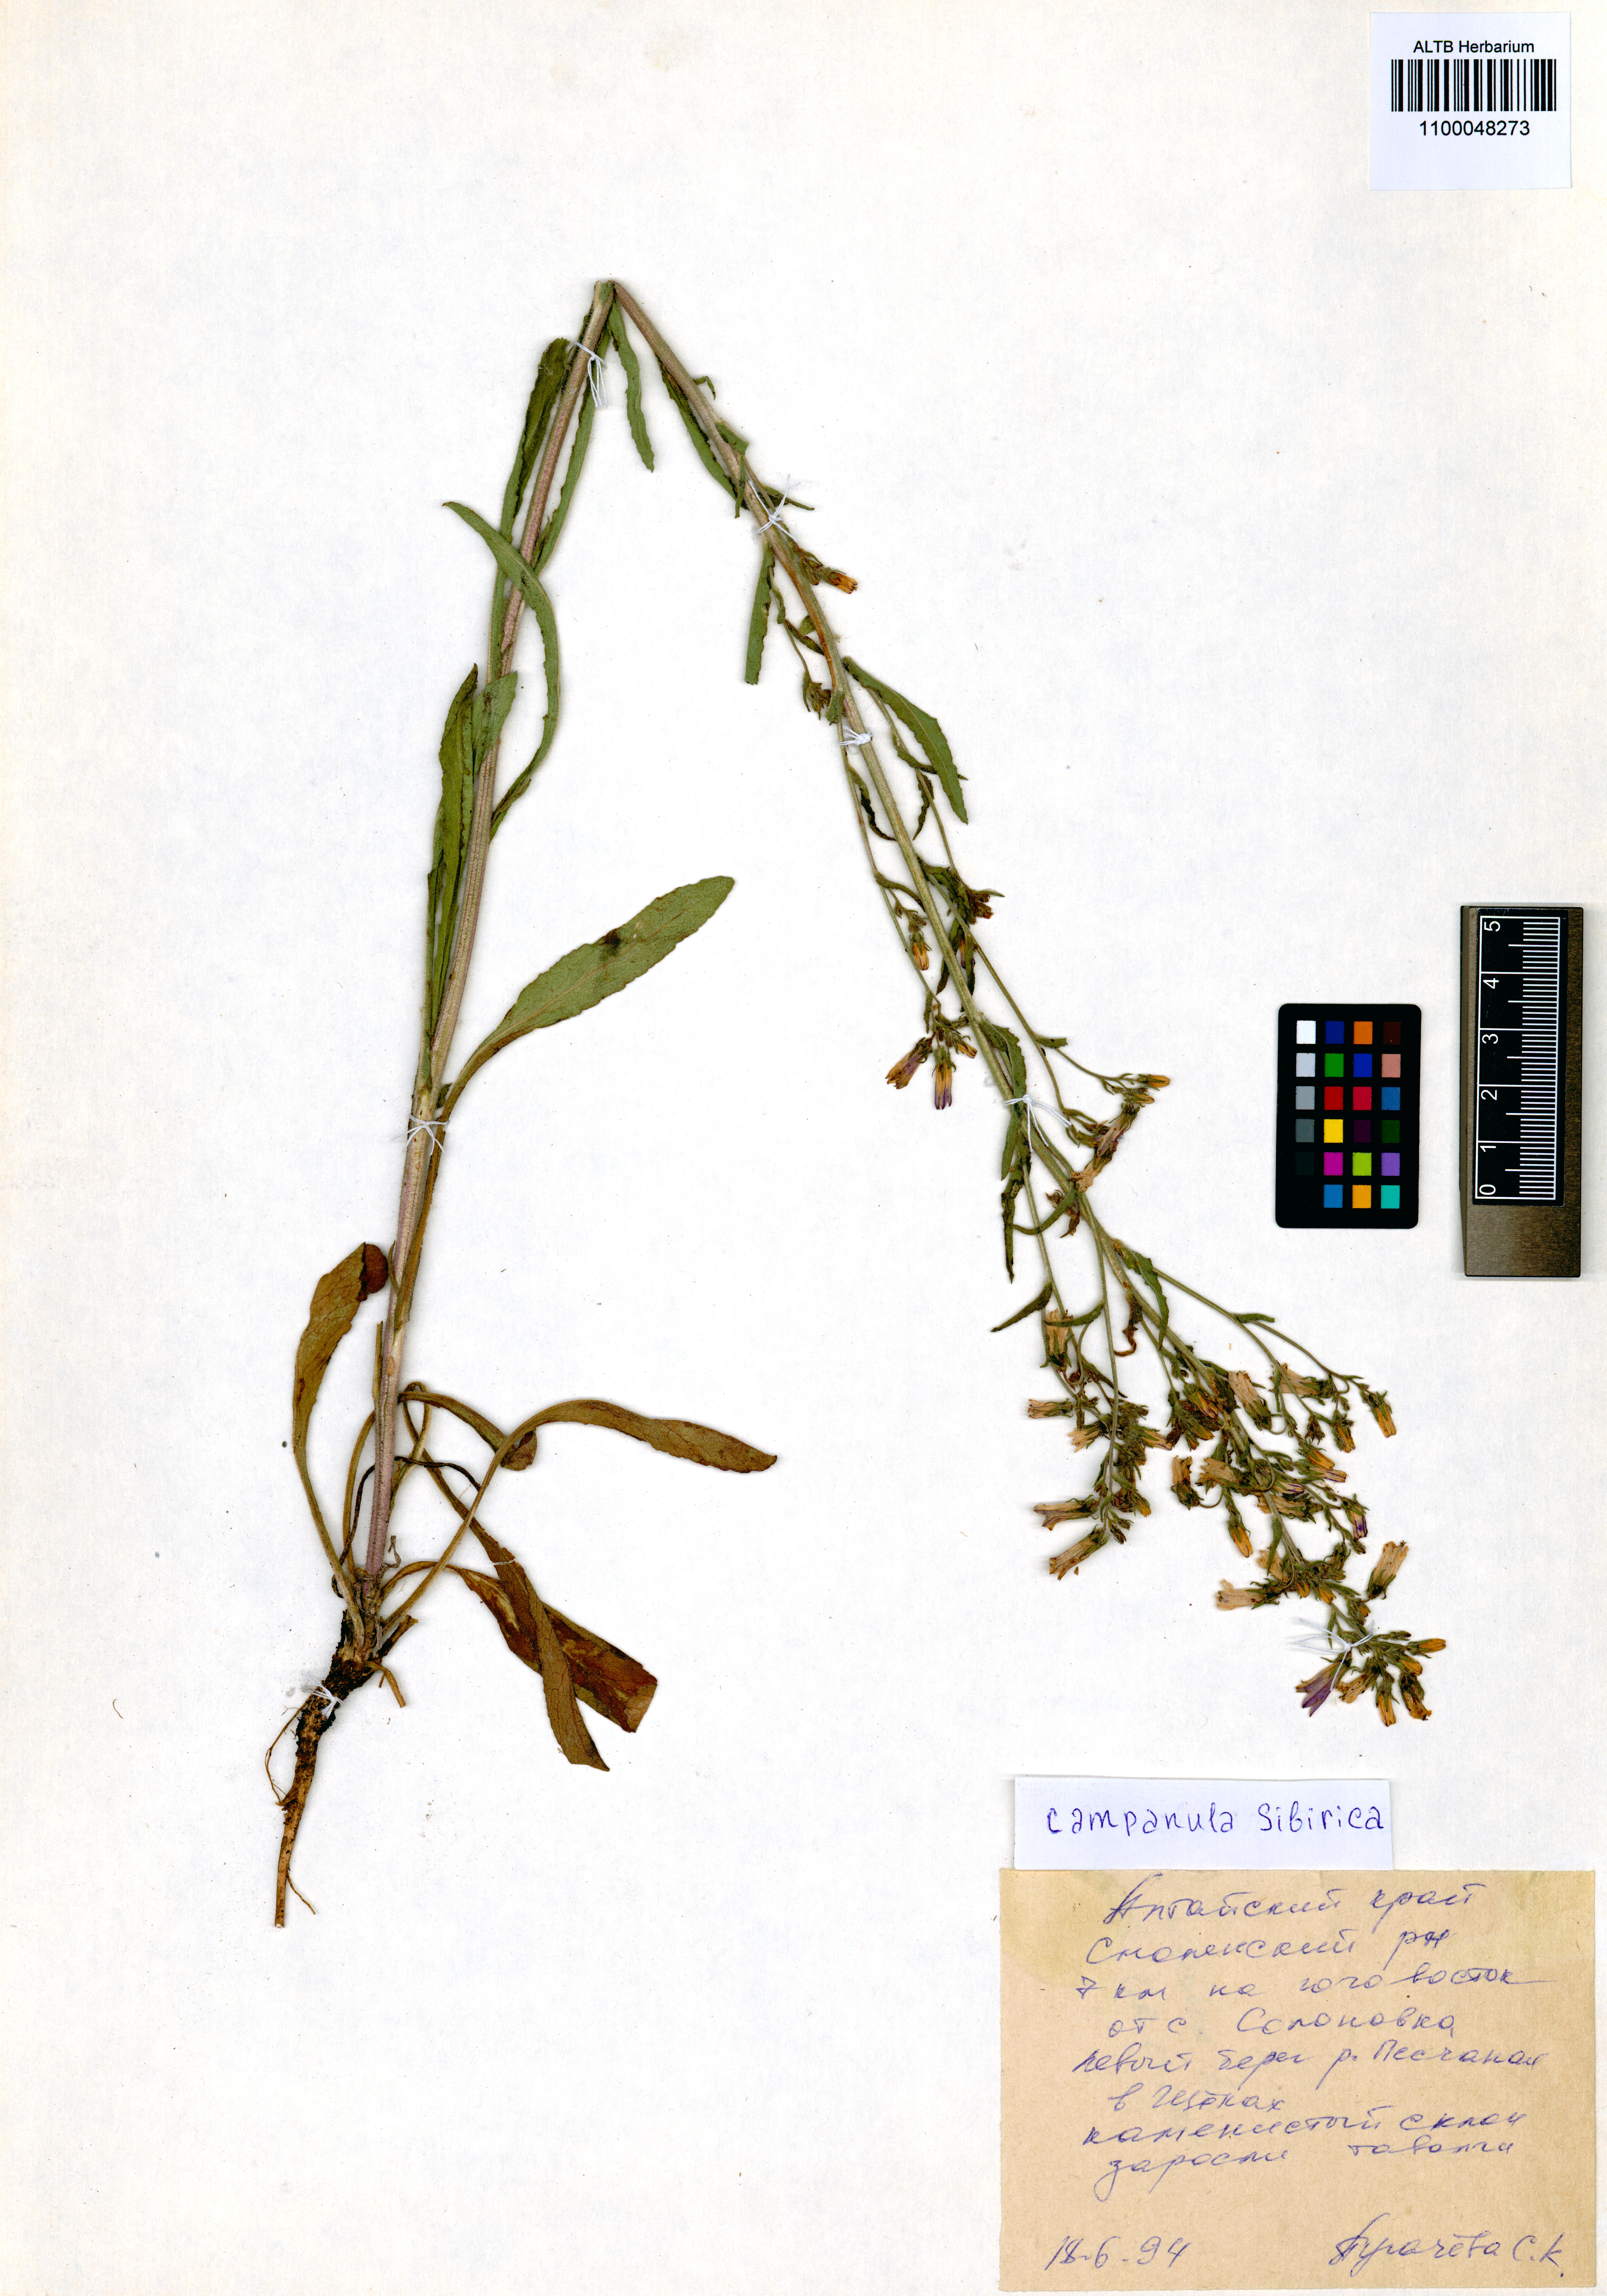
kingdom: Plantae
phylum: Tracheophyta
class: Magnoliopsida
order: Asterales
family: Campanulaceae
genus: Campanula
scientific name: Campanula sibirica
